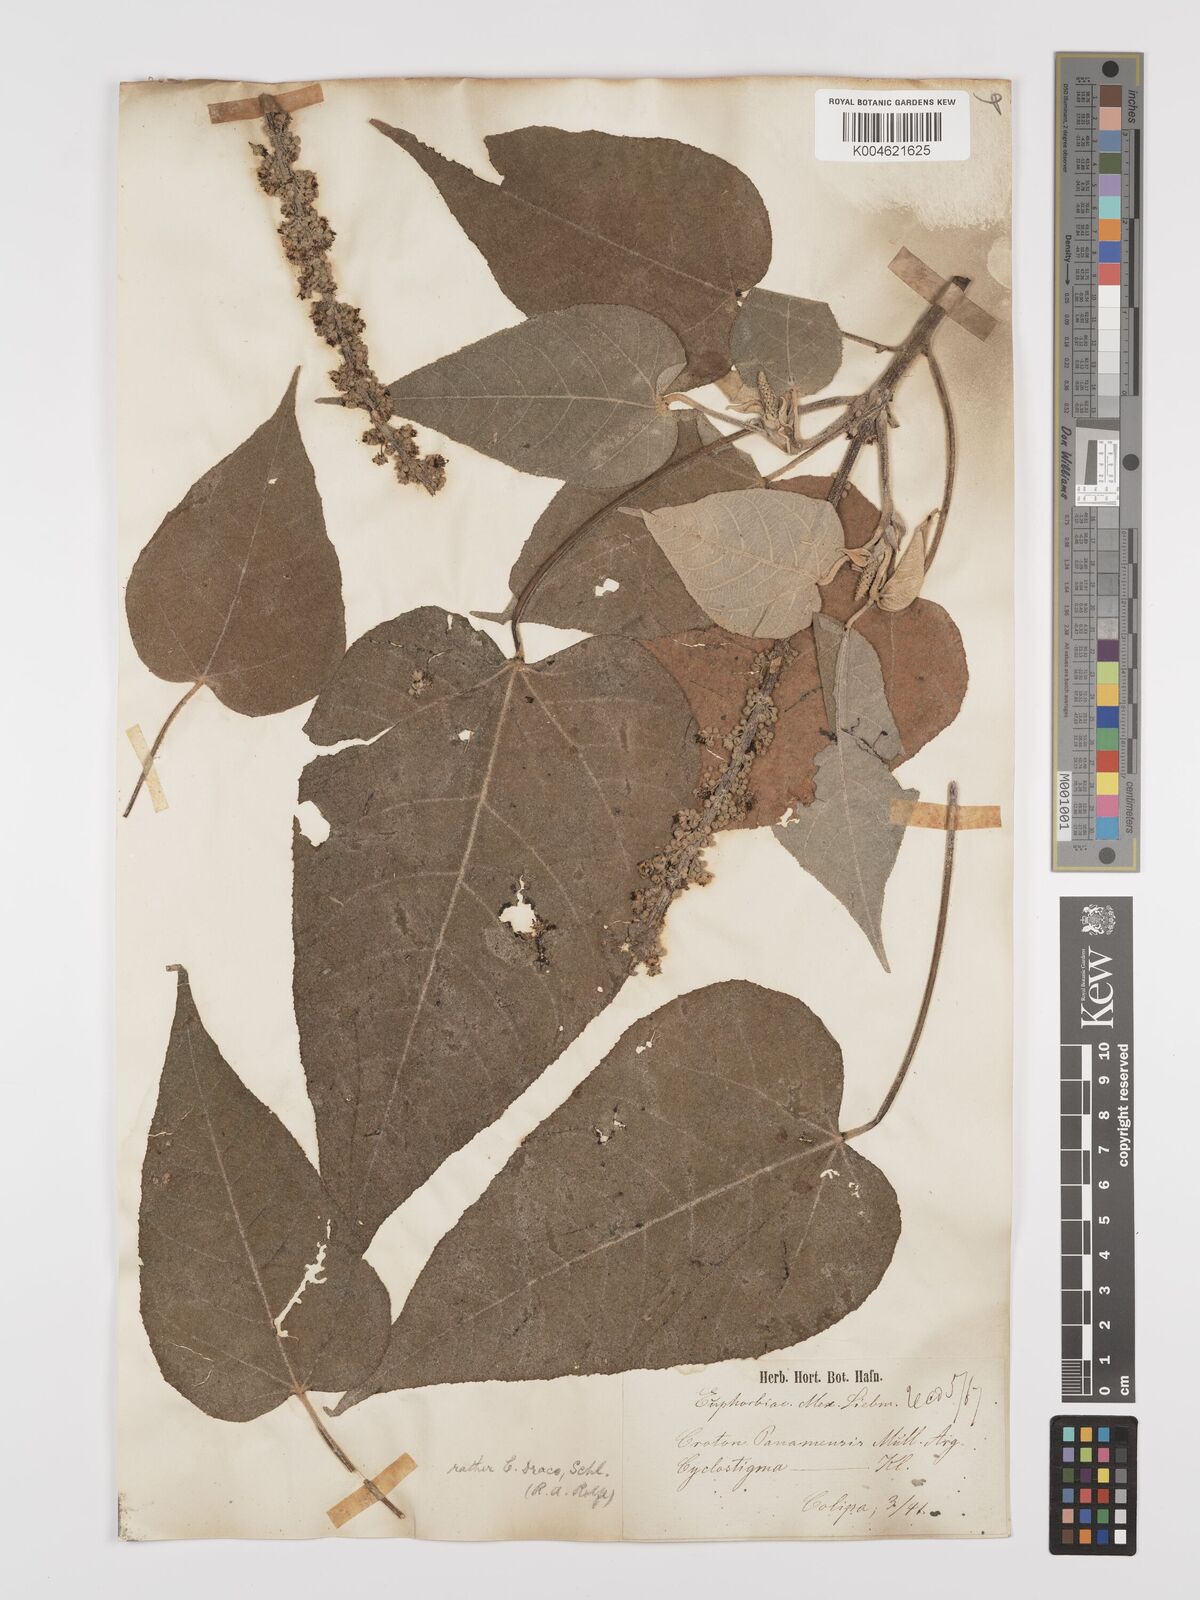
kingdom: Plantae
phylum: Tracheophyta
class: Magnoliopsida
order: Malpighiales
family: Euphorbiaceae
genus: Croton
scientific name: Croton draco
